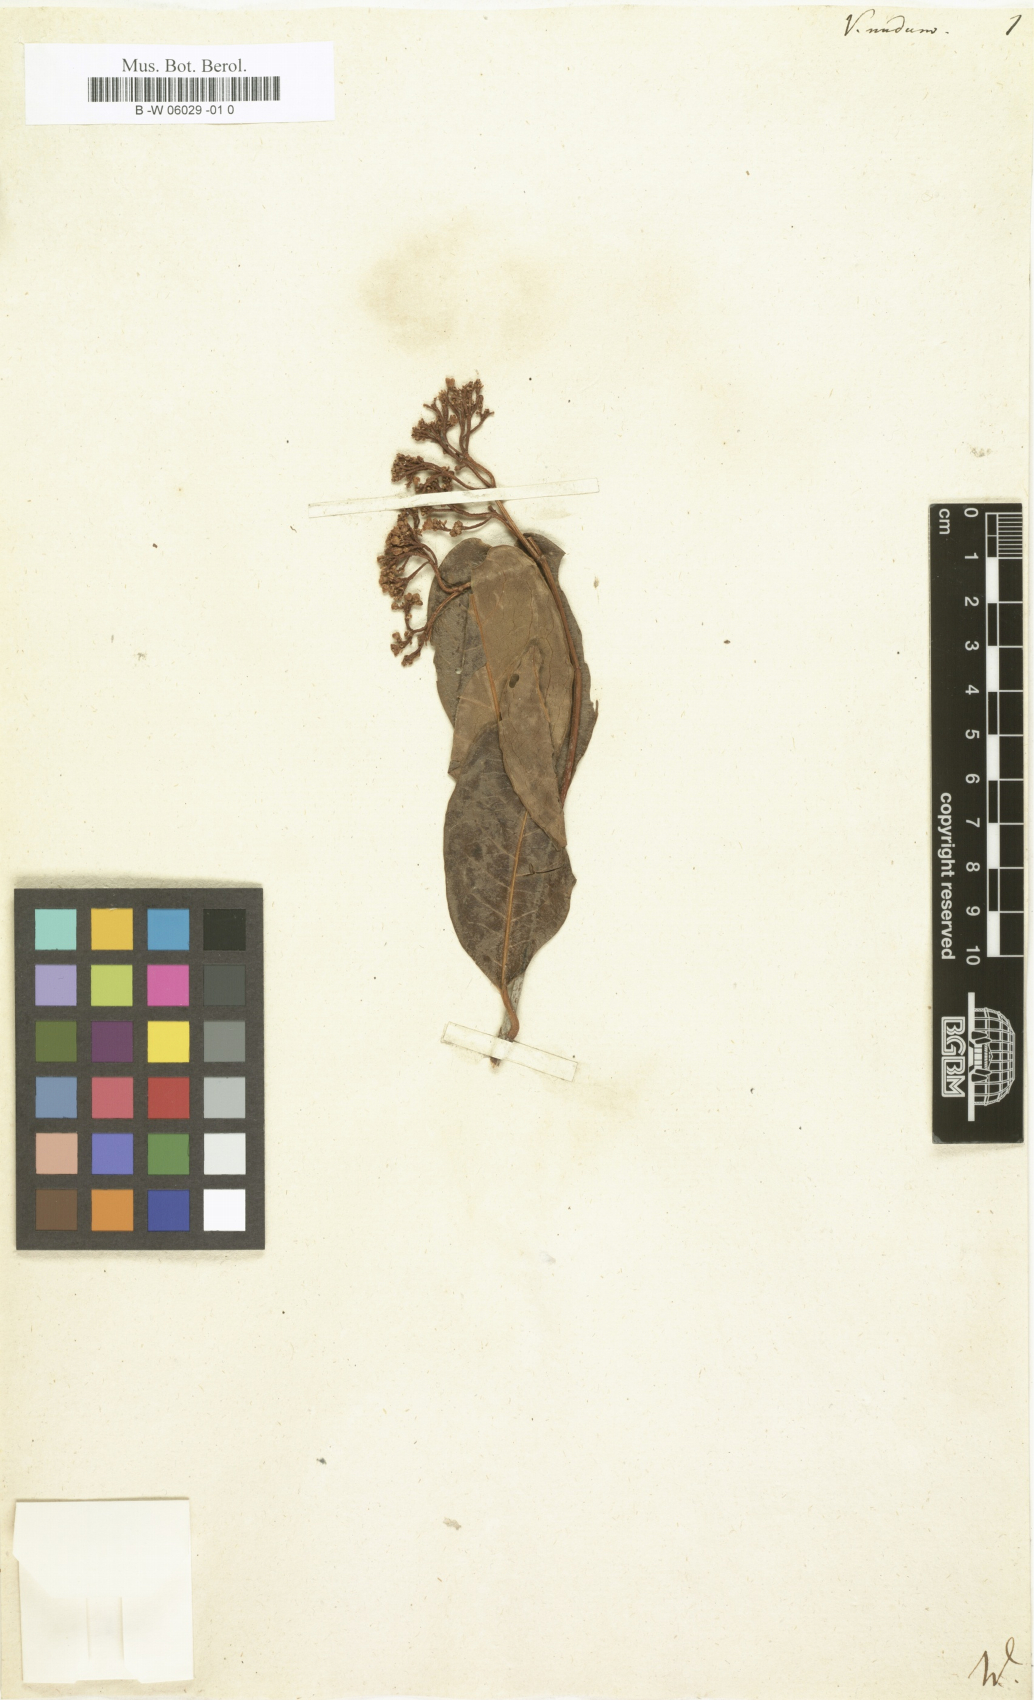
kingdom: Plantae
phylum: Tracheophyta
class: Magnoliopsida
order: Dipsacales
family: Viburnaceae
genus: Viburnum
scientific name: Viburnum nudum
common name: Possum haw
